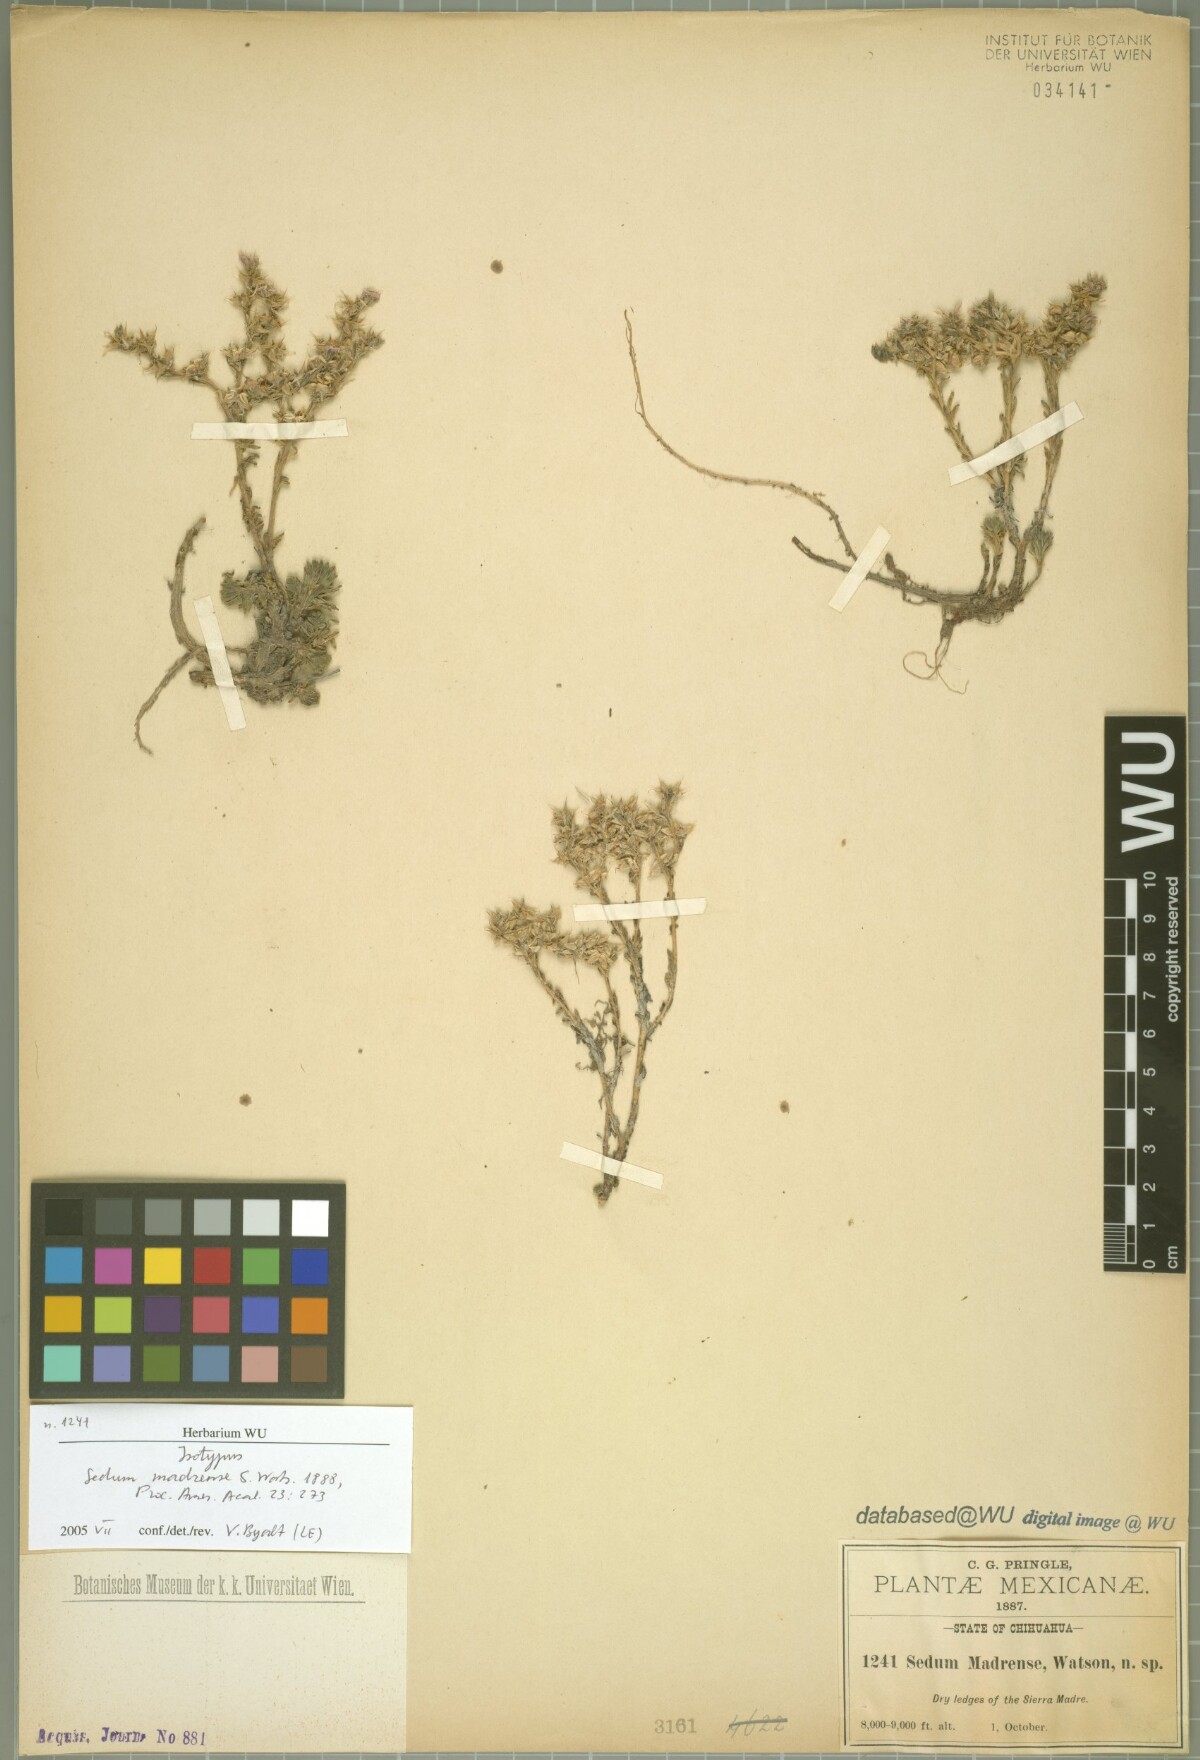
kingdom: Plantae
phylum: Tracheophyta
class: Magnoliopsida
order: Saxifragales
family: Crassulaceae
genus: Sedum
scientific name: Sedum madrense
